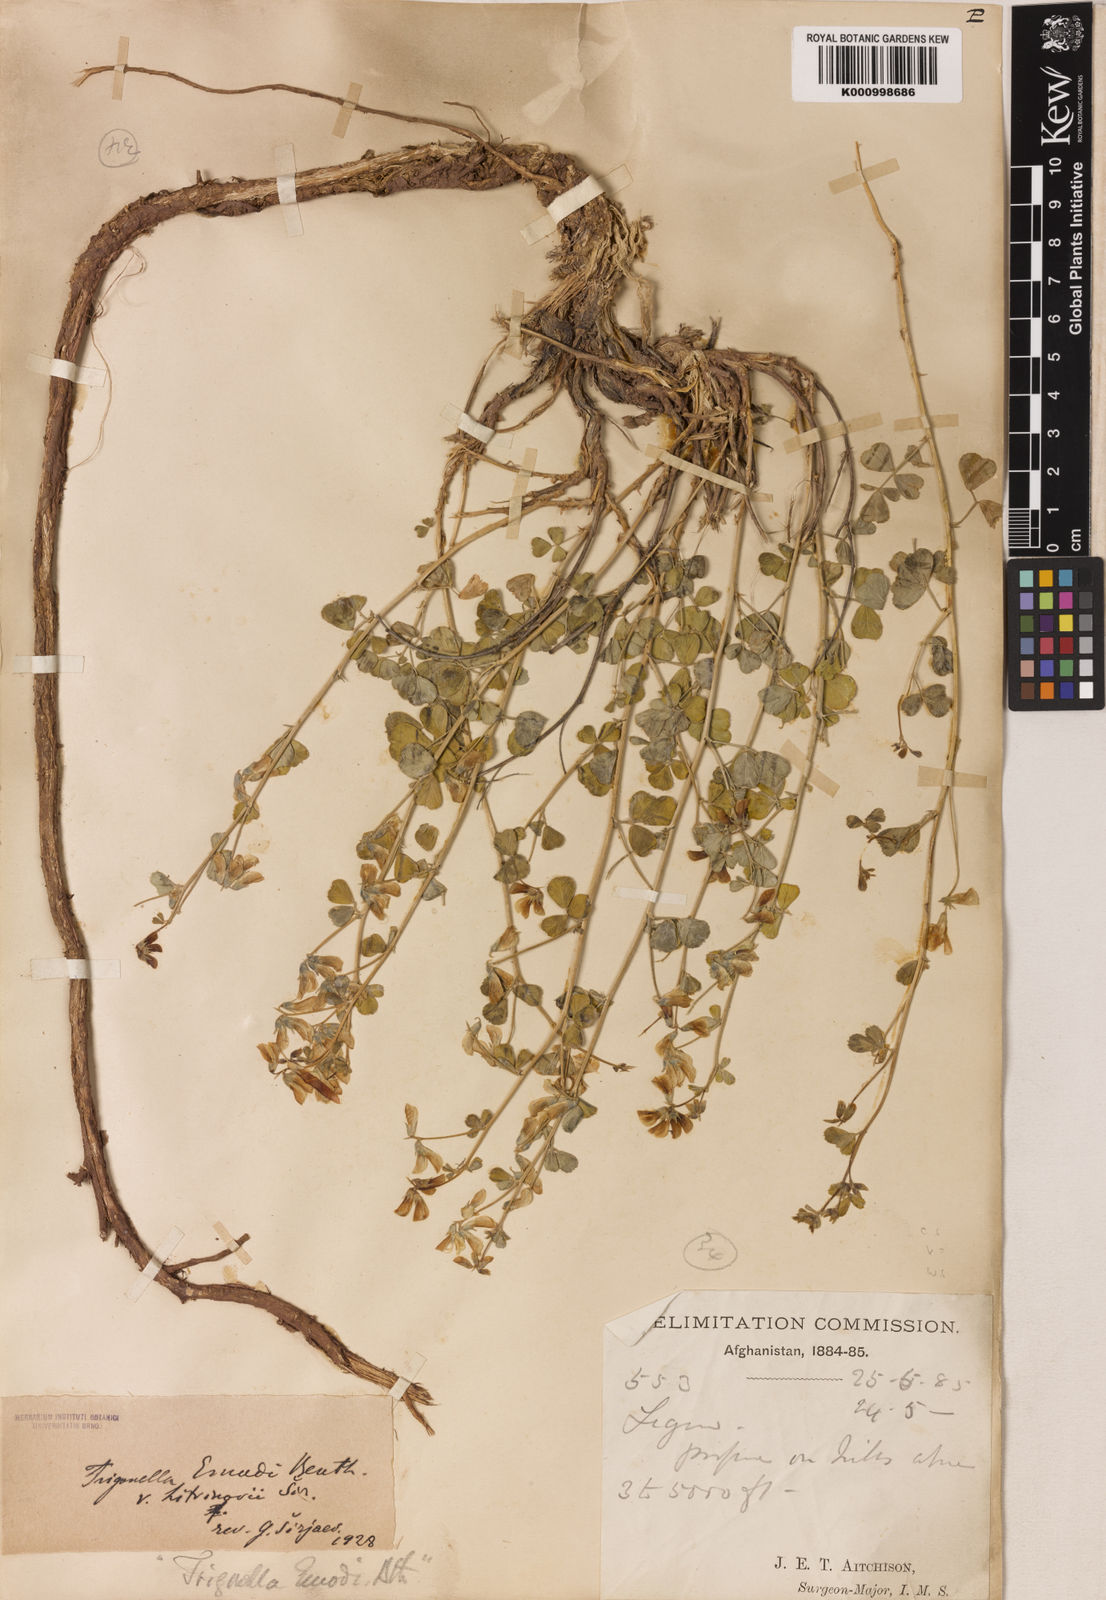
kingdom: Plantae
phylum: Tracheophyta
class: Magnoliopsida
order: Fabales
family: Fabaceae
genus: Trigonella
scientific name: Trigonella emodi
